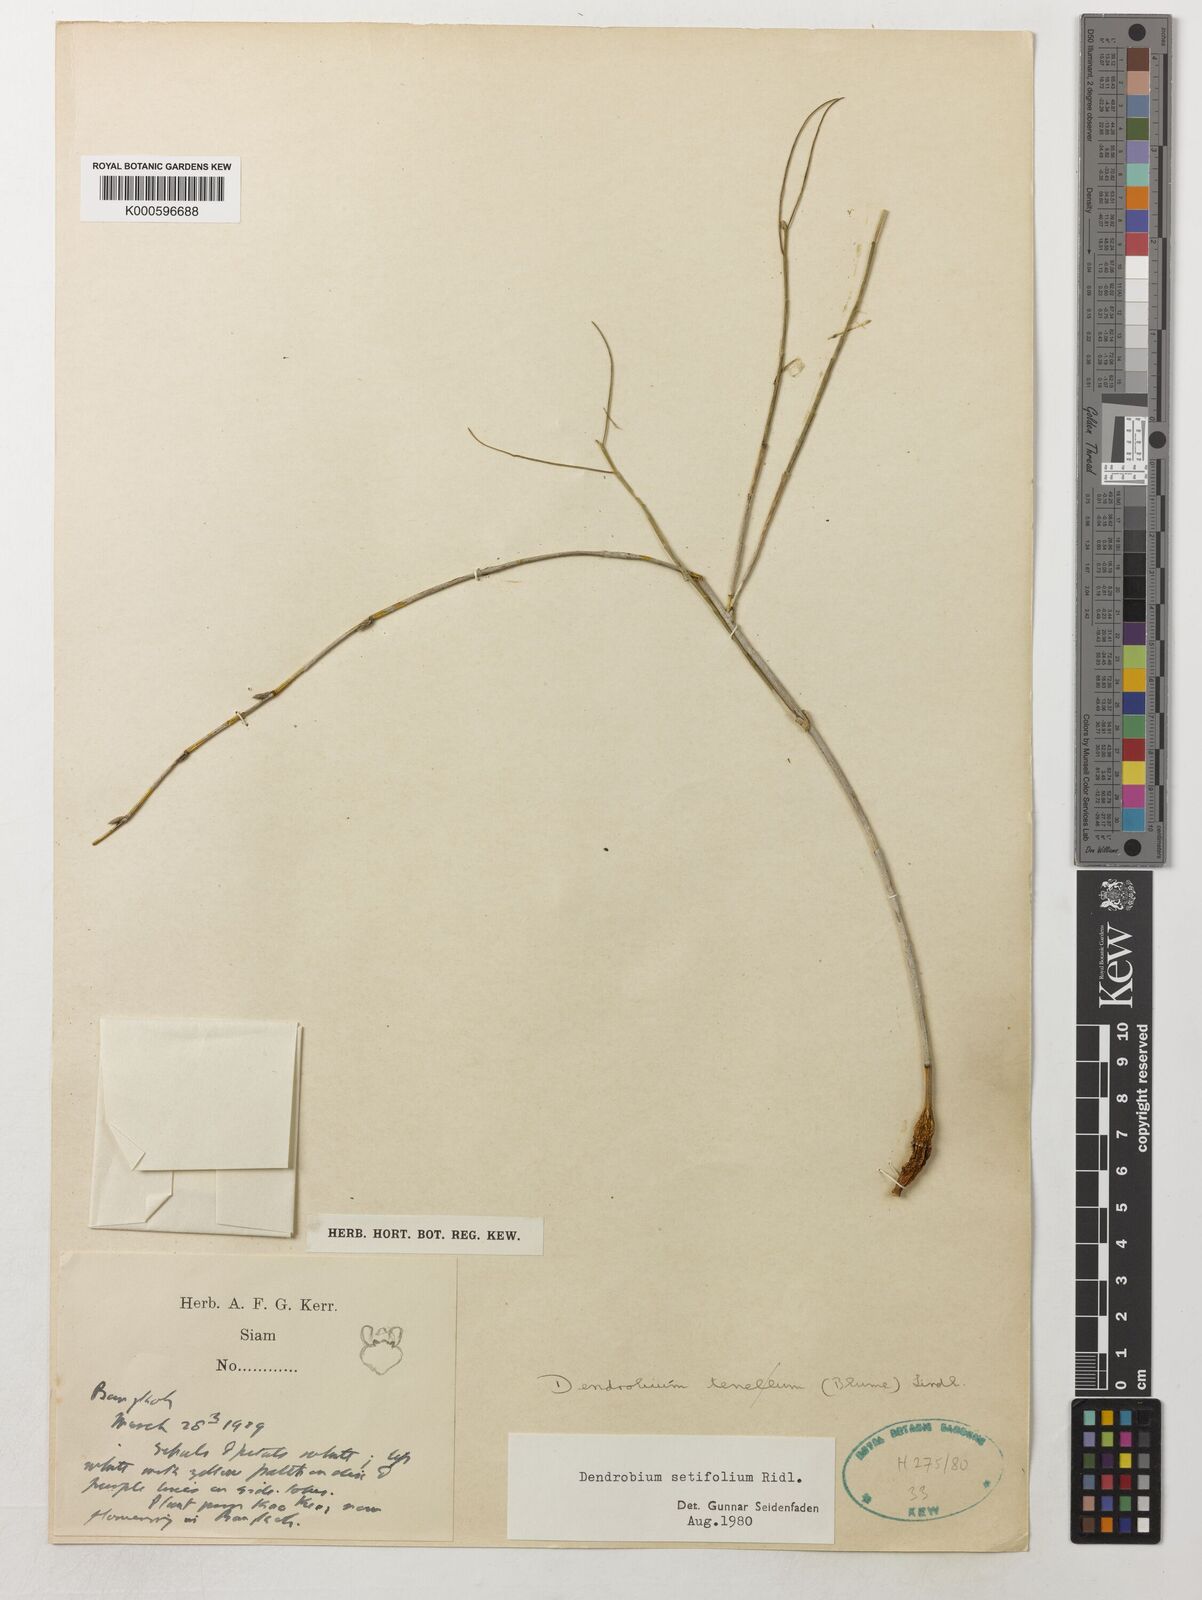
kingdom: Plantae
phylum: Tracheophyta
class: Liliopsida
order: Asparagales
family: Orchidaceae
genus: Dendrobium
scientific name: Dendrobium setifolium
